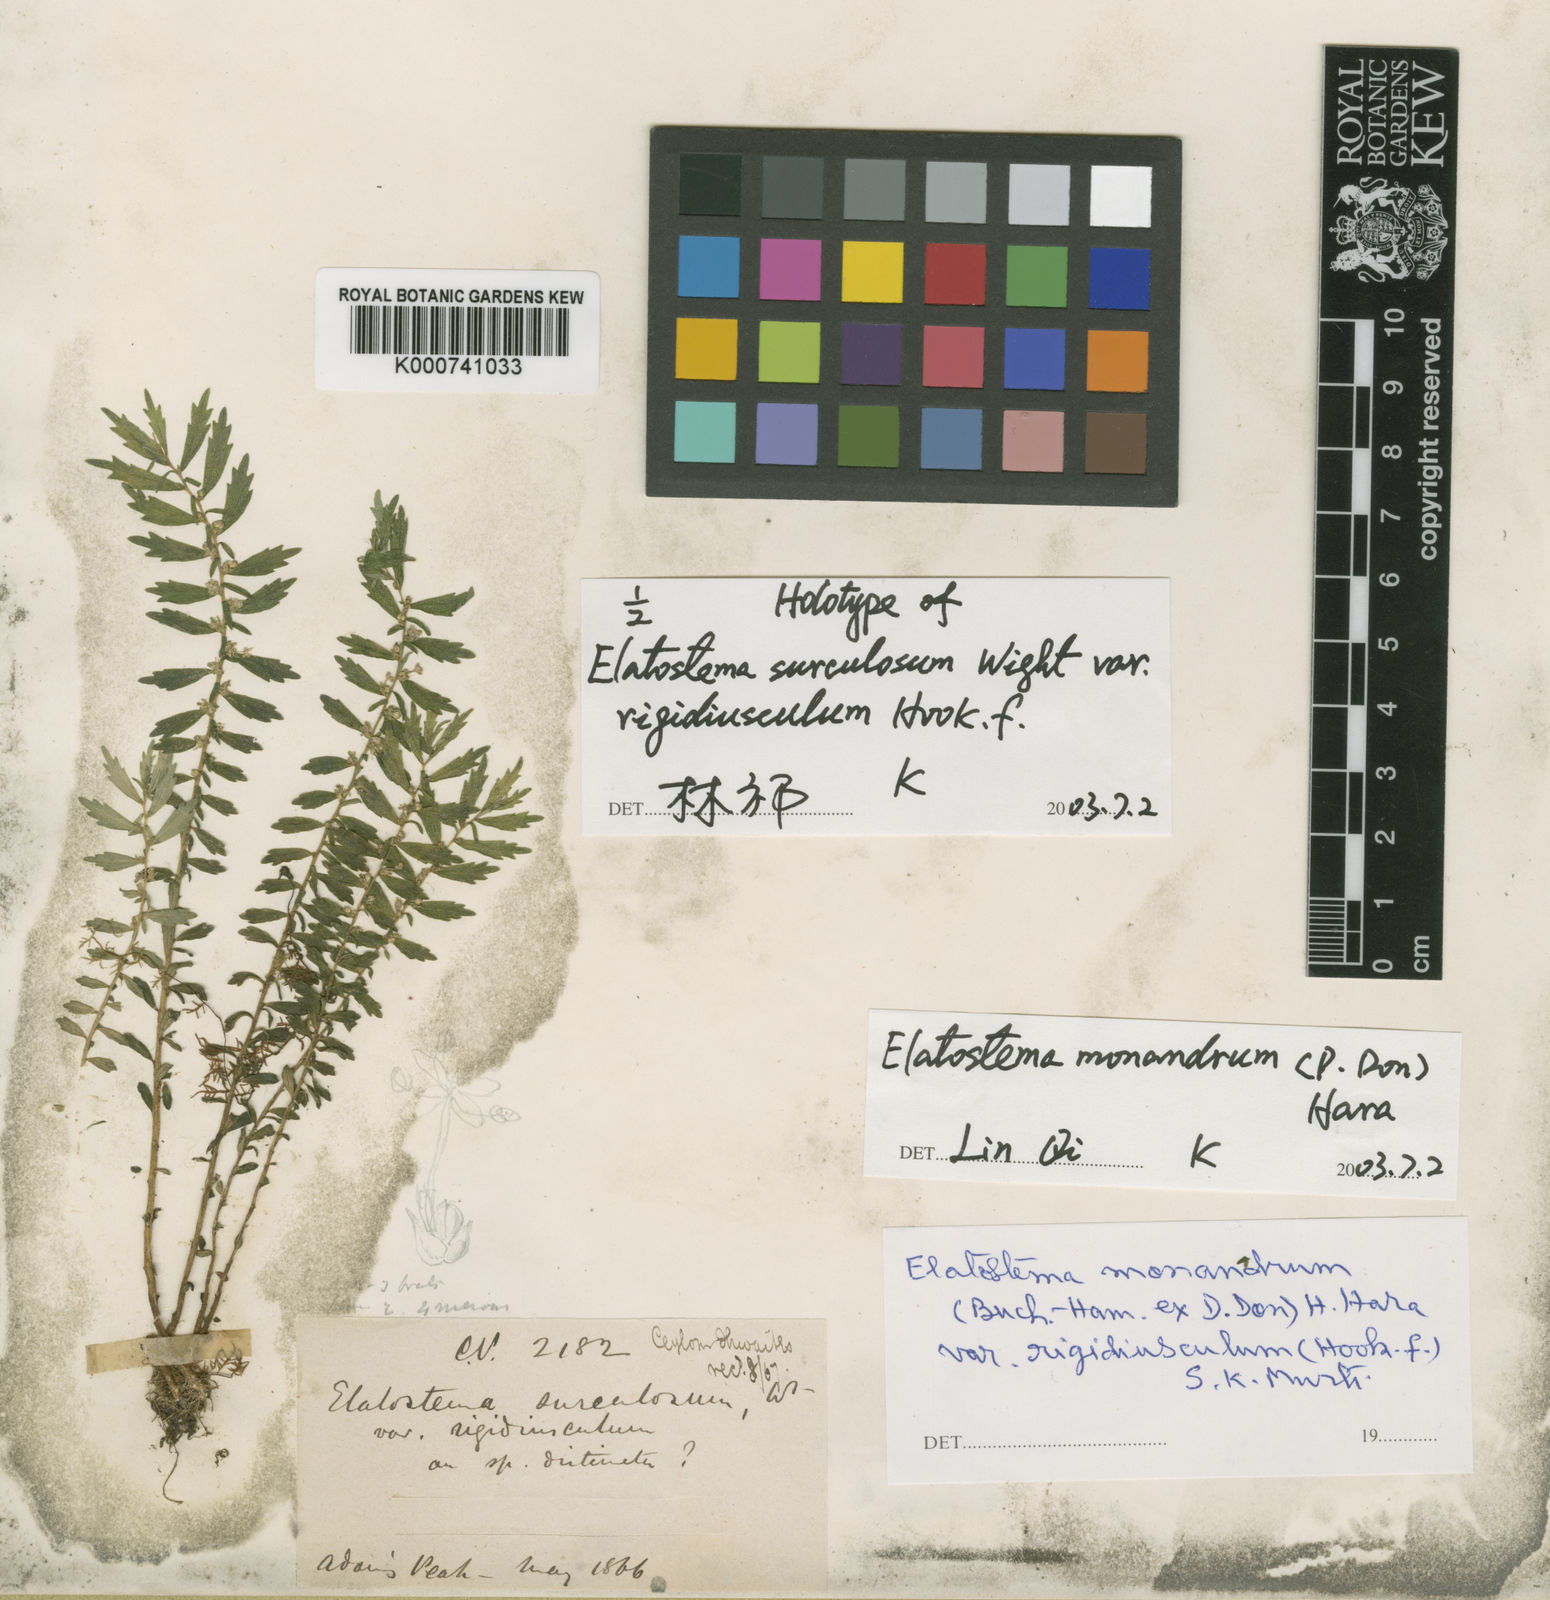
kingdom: Plantae
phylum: Tracheophyta
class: Magnoliopsida
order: Rosales
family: Urticaceae
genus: Elatostema
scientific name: Elatostema monandrum
